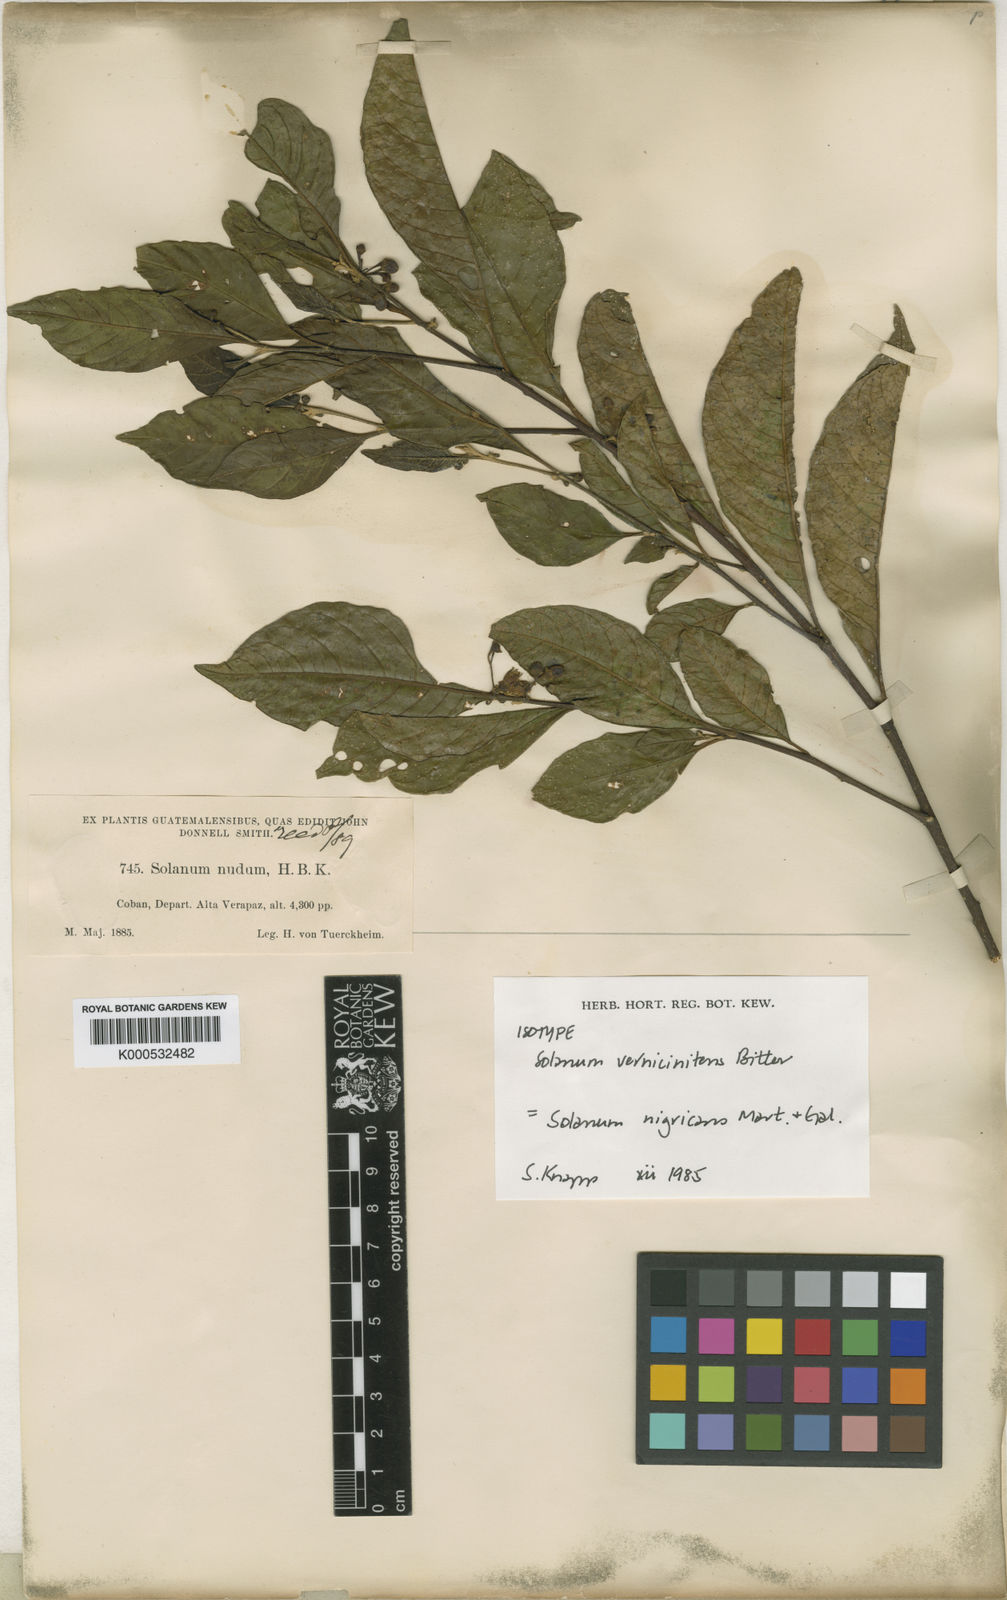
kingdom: Plantae
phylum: Tracheophyta
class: Magnoliopsida
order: Solanales
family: Solanaceae
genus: Solanum
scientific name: Solanum nigricans
